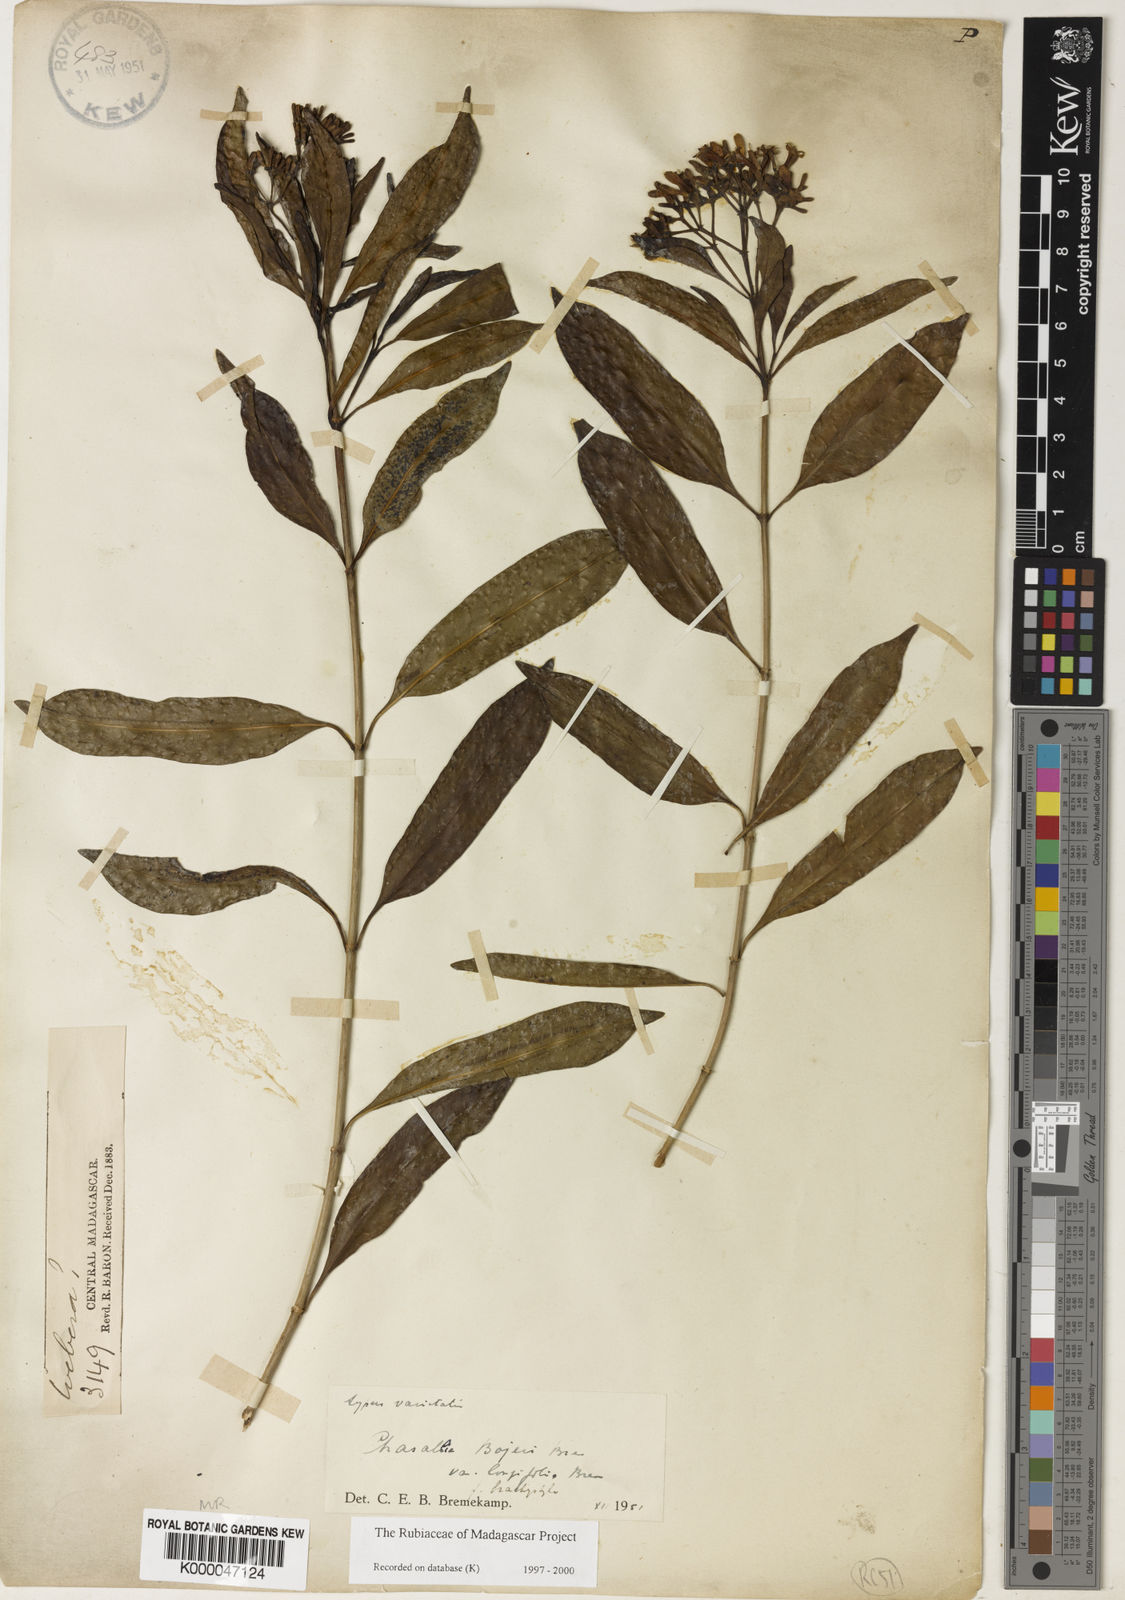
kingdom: Plantae
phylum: Tracheophyta
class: Magnoliopsida
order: Gentianales
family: Rubiaceae
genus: Chassalia
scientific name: Chassalia bojeri
